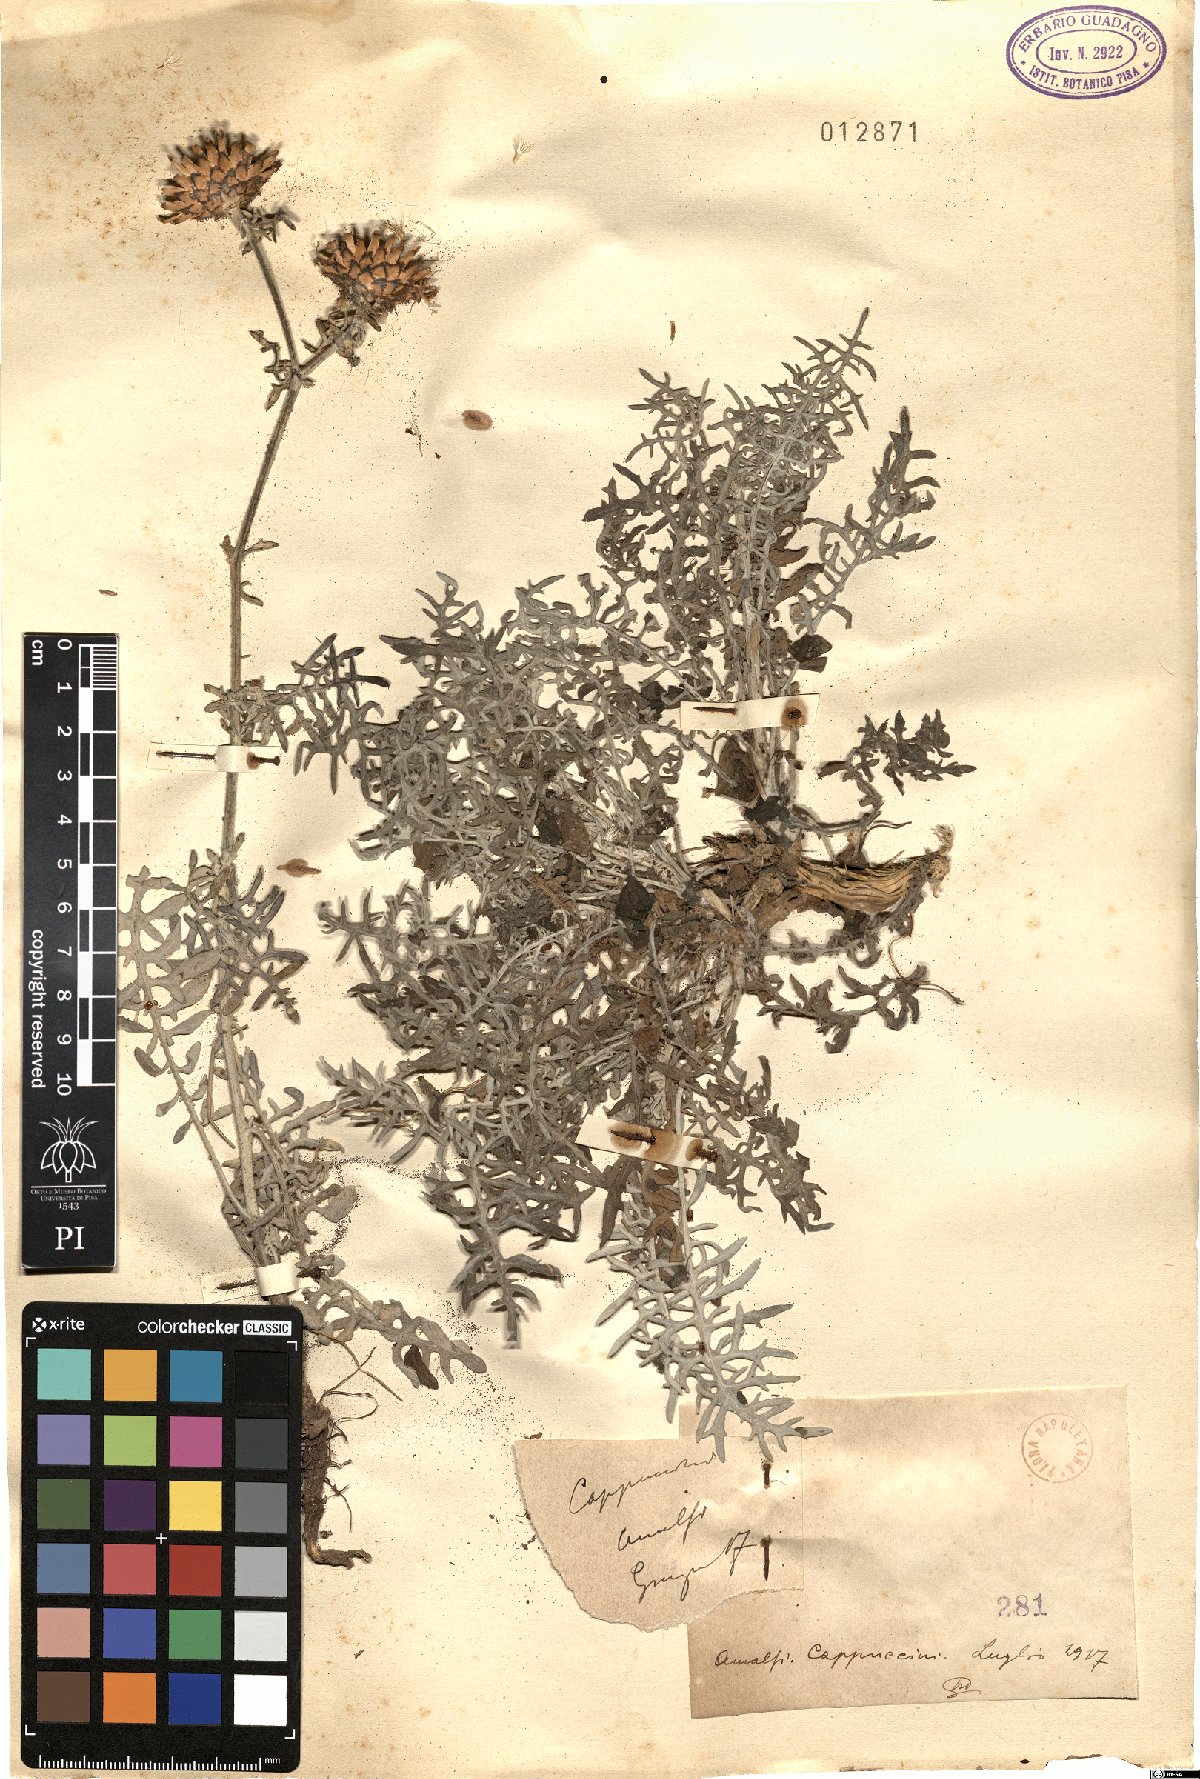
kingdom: Plantae
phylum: Tracheophyta
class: Magnoliopsida
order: Asterales
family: Asteraceae
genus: Centaurea
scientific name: Centaurea
